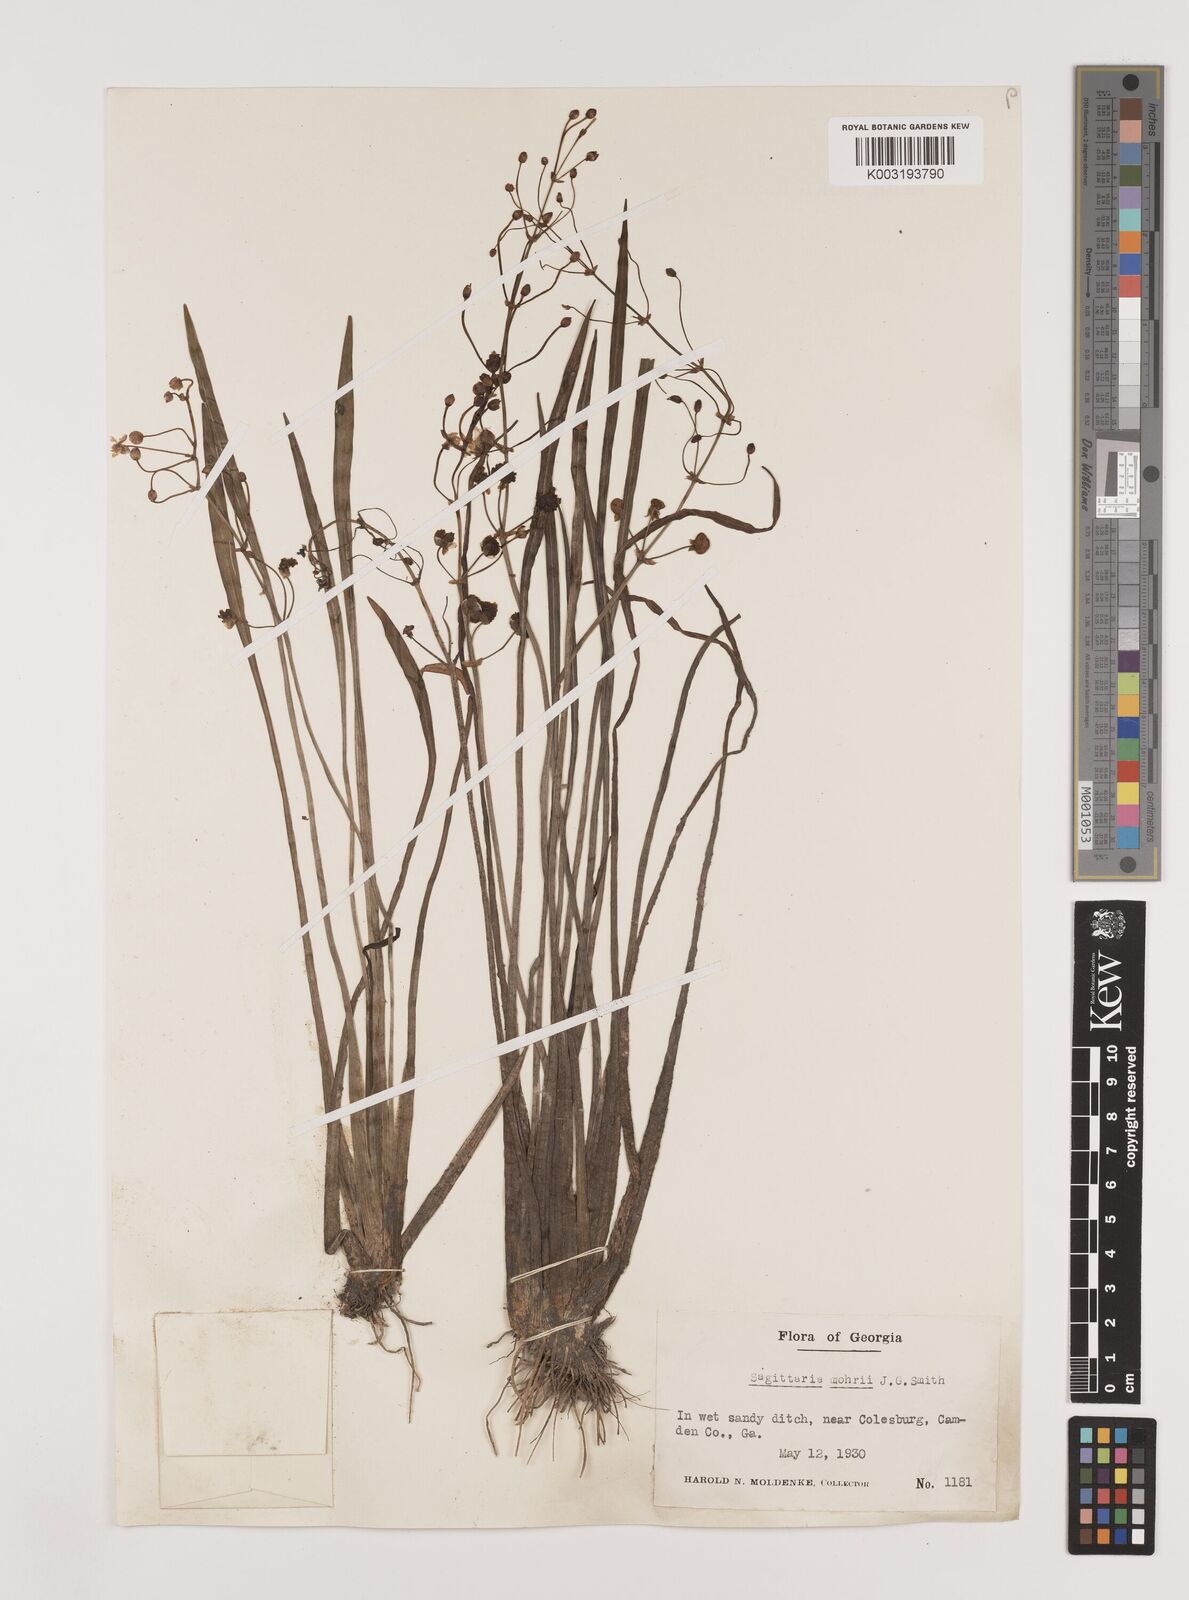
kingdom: Plantae
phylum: Tracheophyta
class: Liliopsida
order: Alismatales
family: Alismataceae
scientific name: Alismataceae
